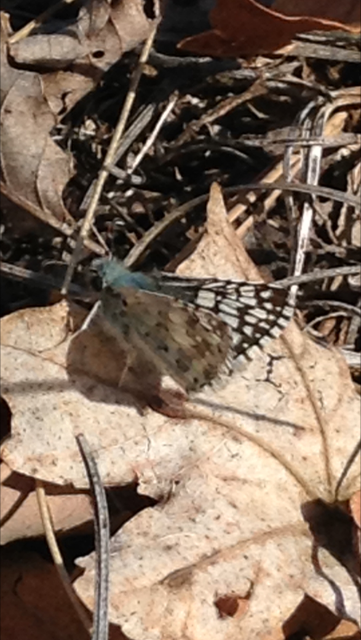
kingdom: Animalia
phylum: Arthropoda
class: Insecta
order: Lepidoptera
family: Hesperiidae
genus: Pyrgus
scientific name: Pyrgus communis
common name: Common Checkered-Skipper
